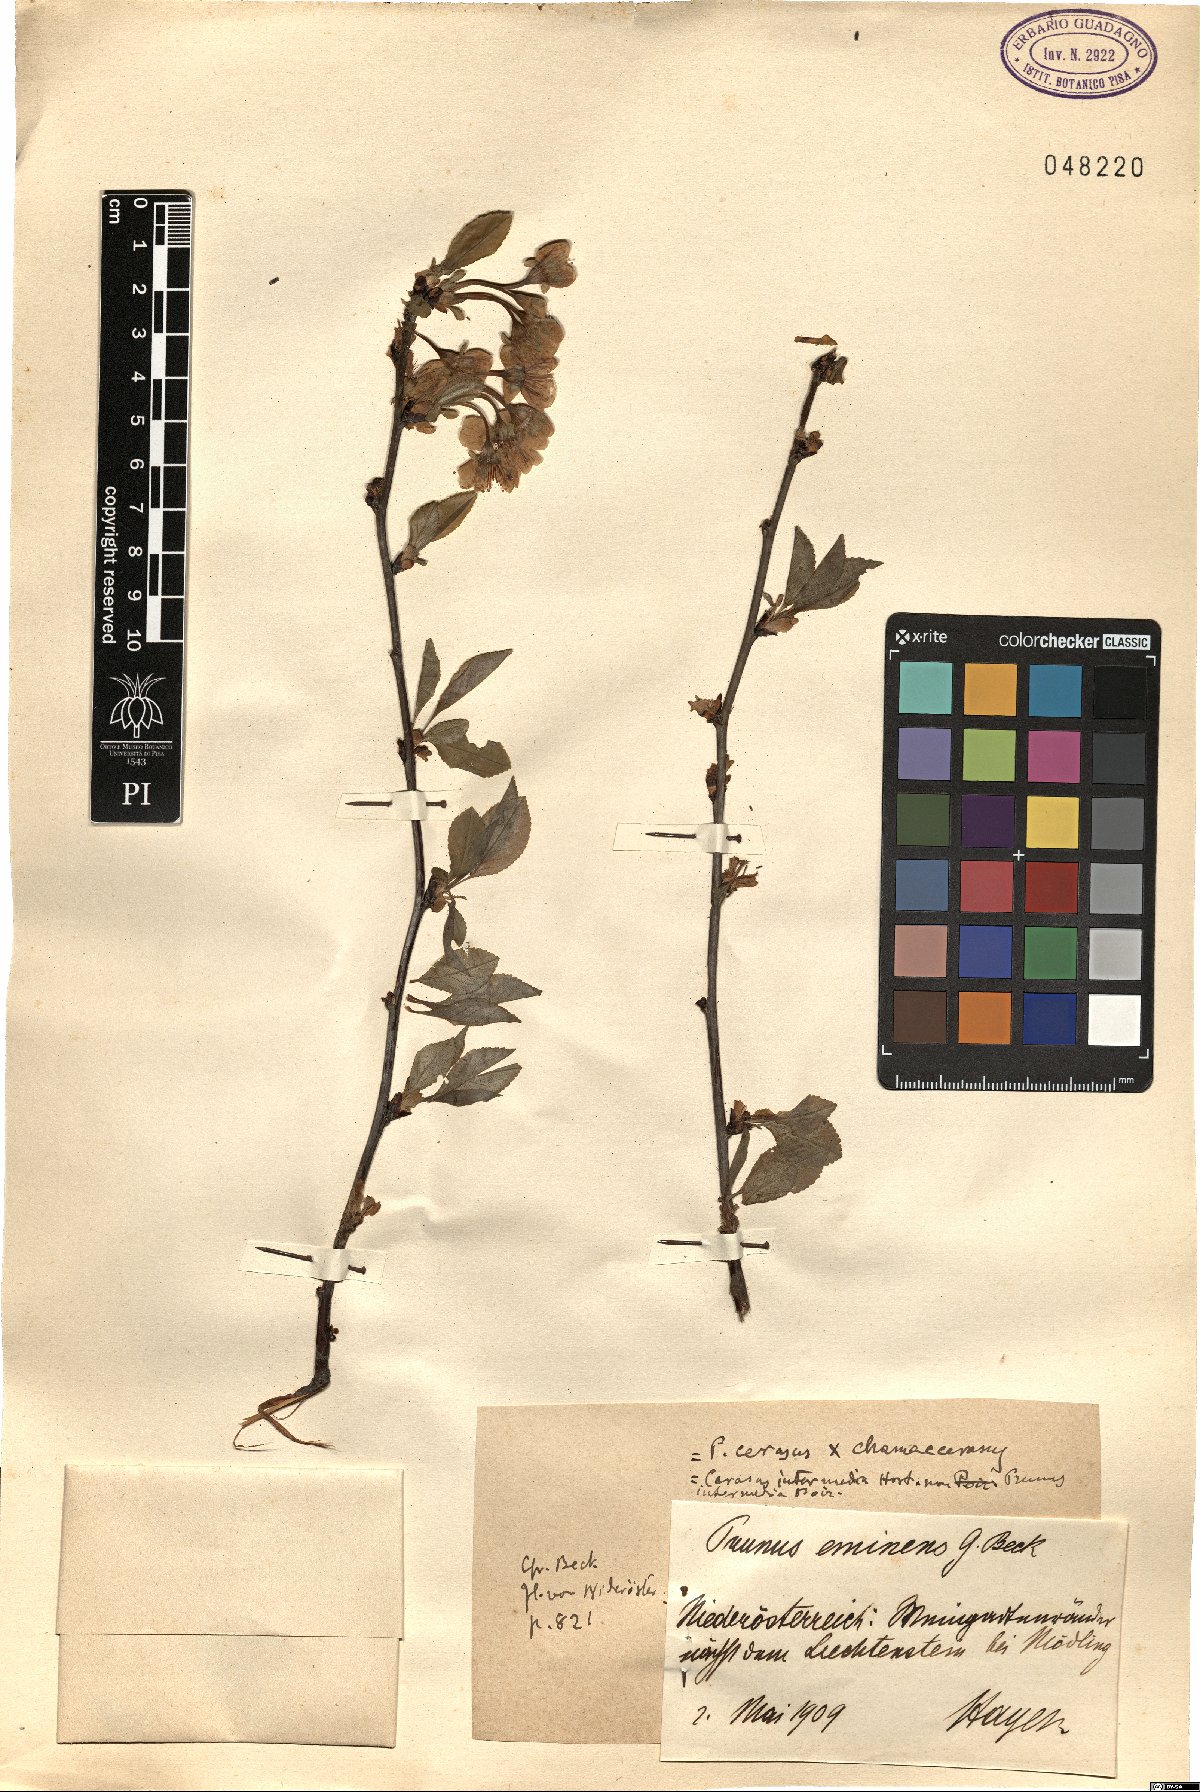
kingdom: Plantae
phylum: Tracheophyta
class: Magnoliopsida
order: Rosales
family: Rosaceae
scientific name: Rosaceae
